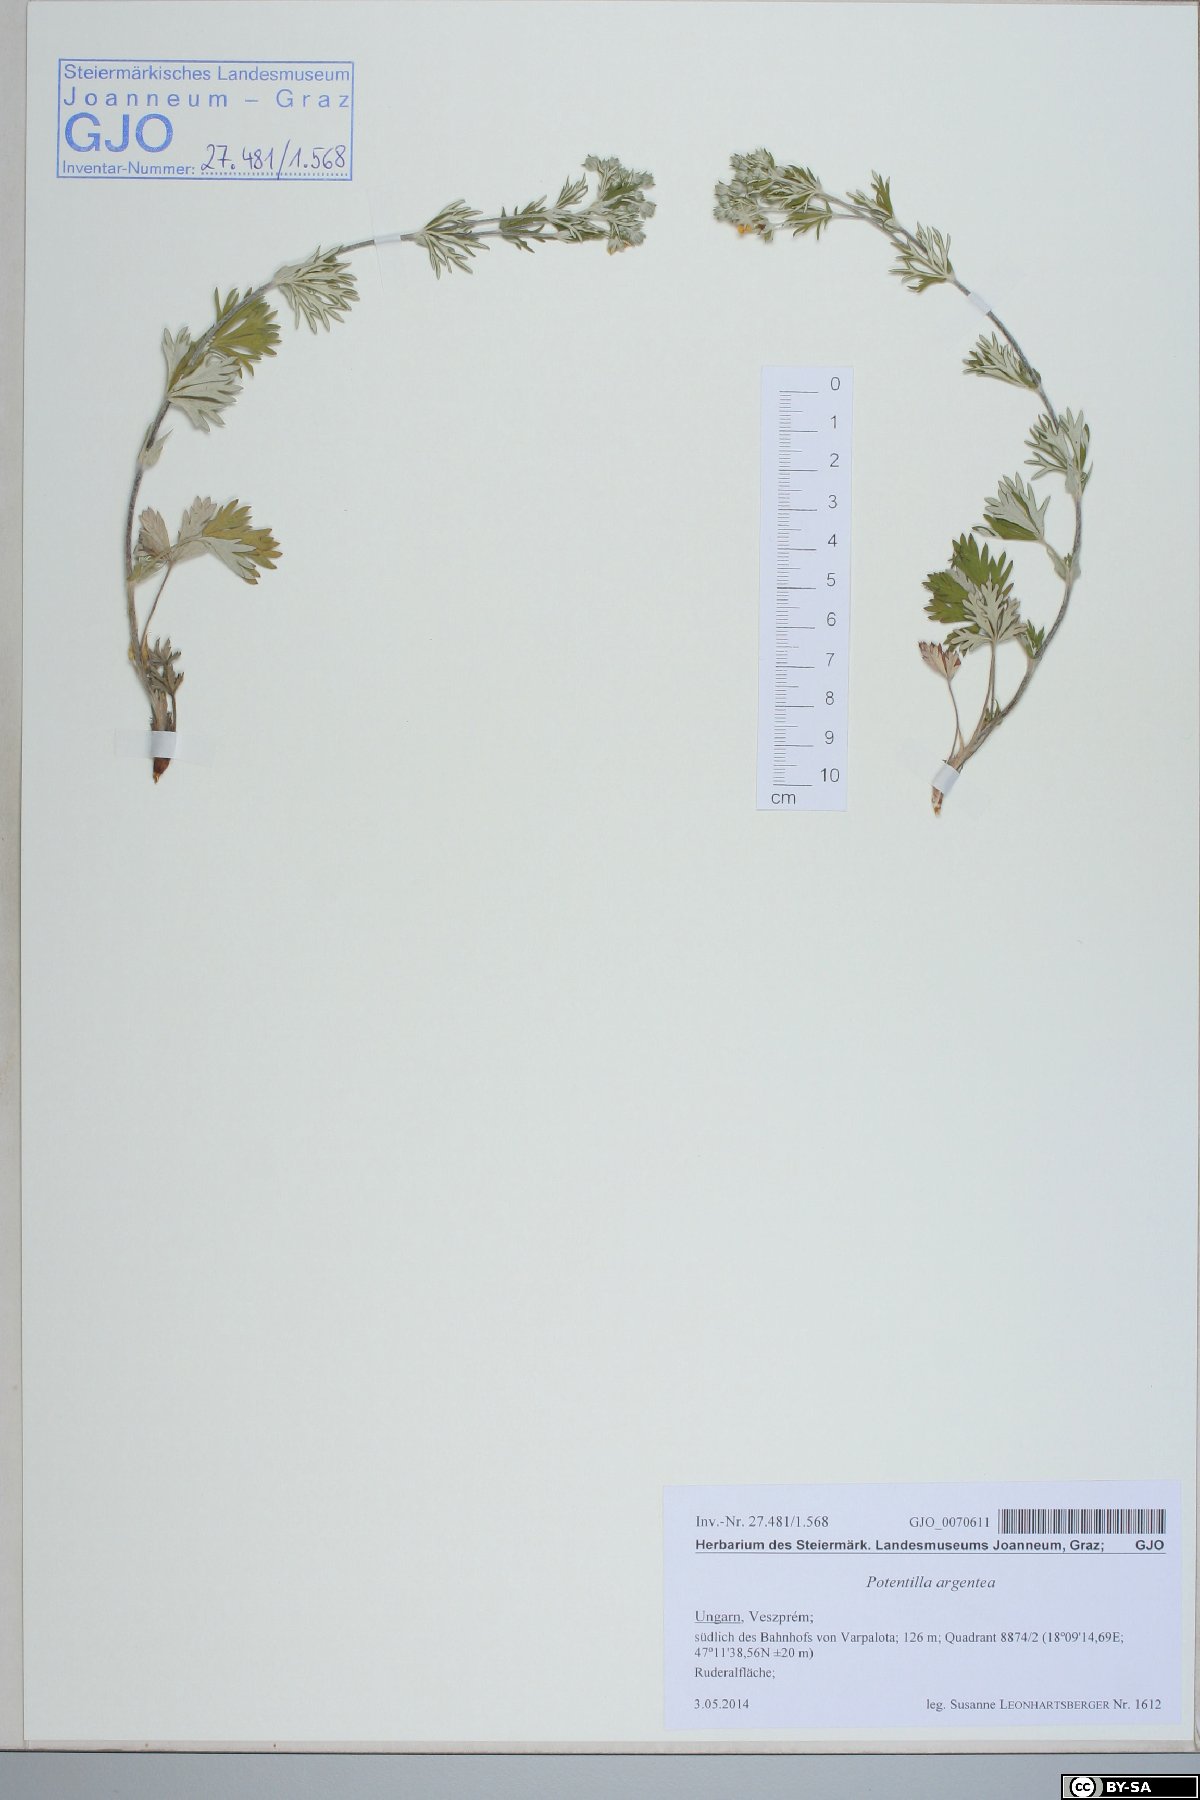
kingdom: Plantae
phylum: Tracheophyta
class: Magnoliopsida
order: Rosales
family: Rosaceae
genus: Potentilla
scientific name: Potentilla argentea
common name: Hoary cinquefoil
